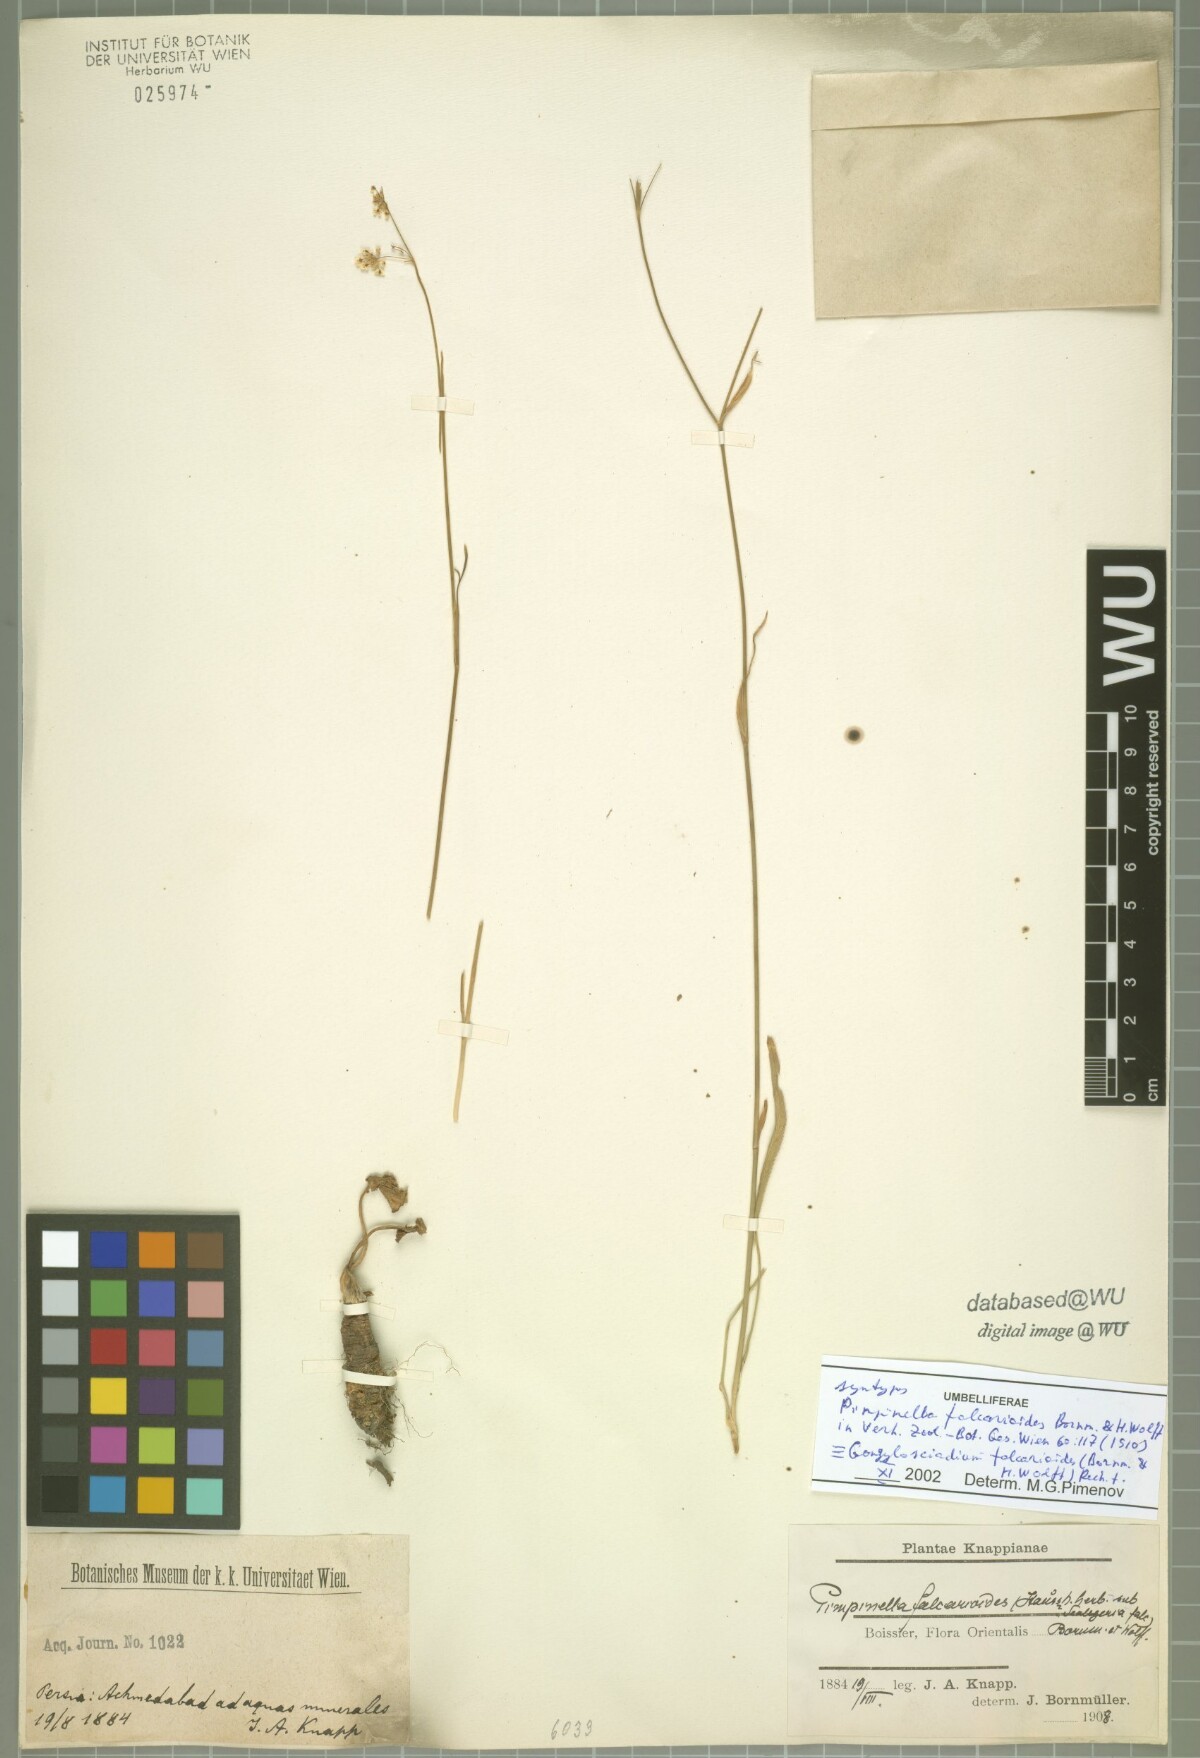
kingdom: Plantae
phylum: Tracheophyta
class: Magnoliopsida
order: Apiales
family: Apiaceae
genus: Gongylosciadium
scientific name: Gongylosciadium falcarioides
